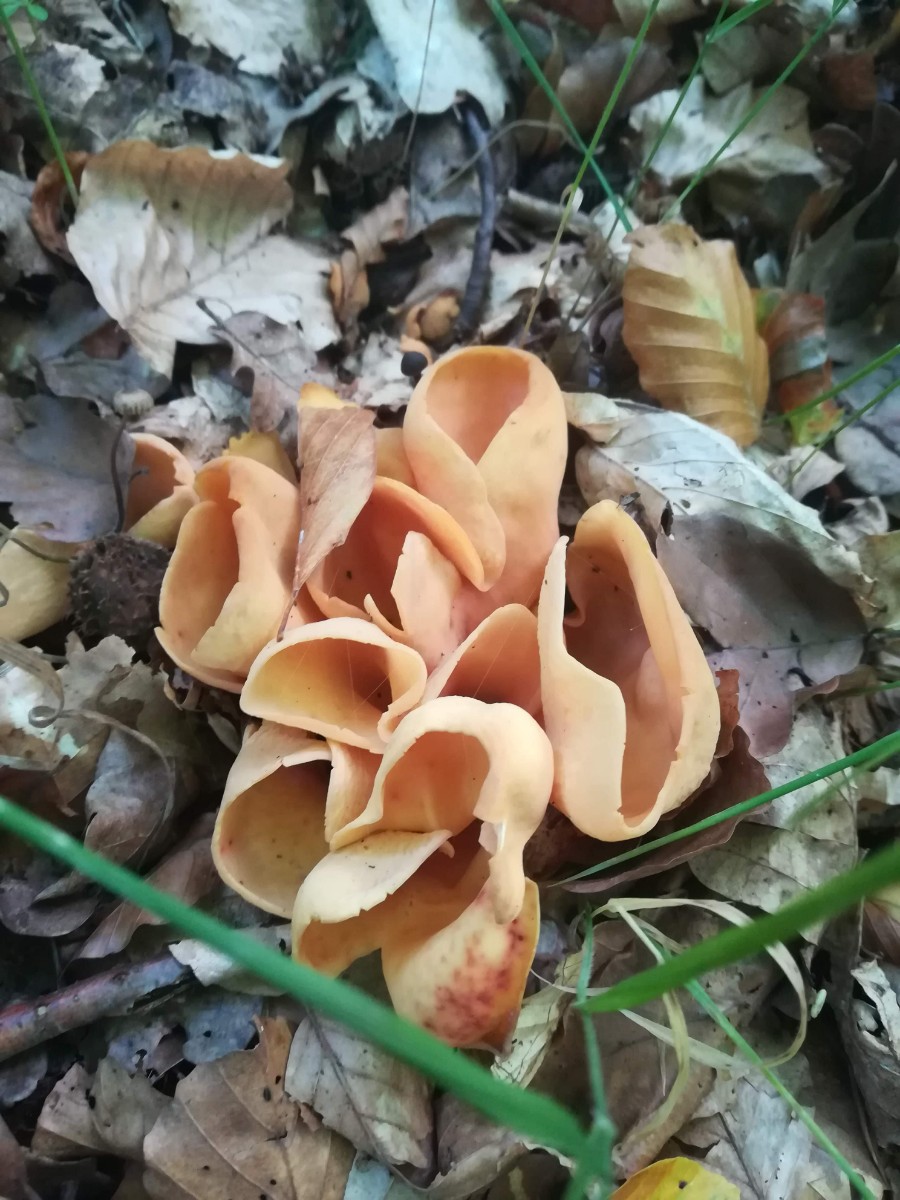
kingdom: Fungi
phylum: Ascomycota
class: Pezizomycetes
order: Pezizales
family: Otideaceae
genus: Otidea
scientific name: Otidea onotica
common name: æsel-ørebæger
